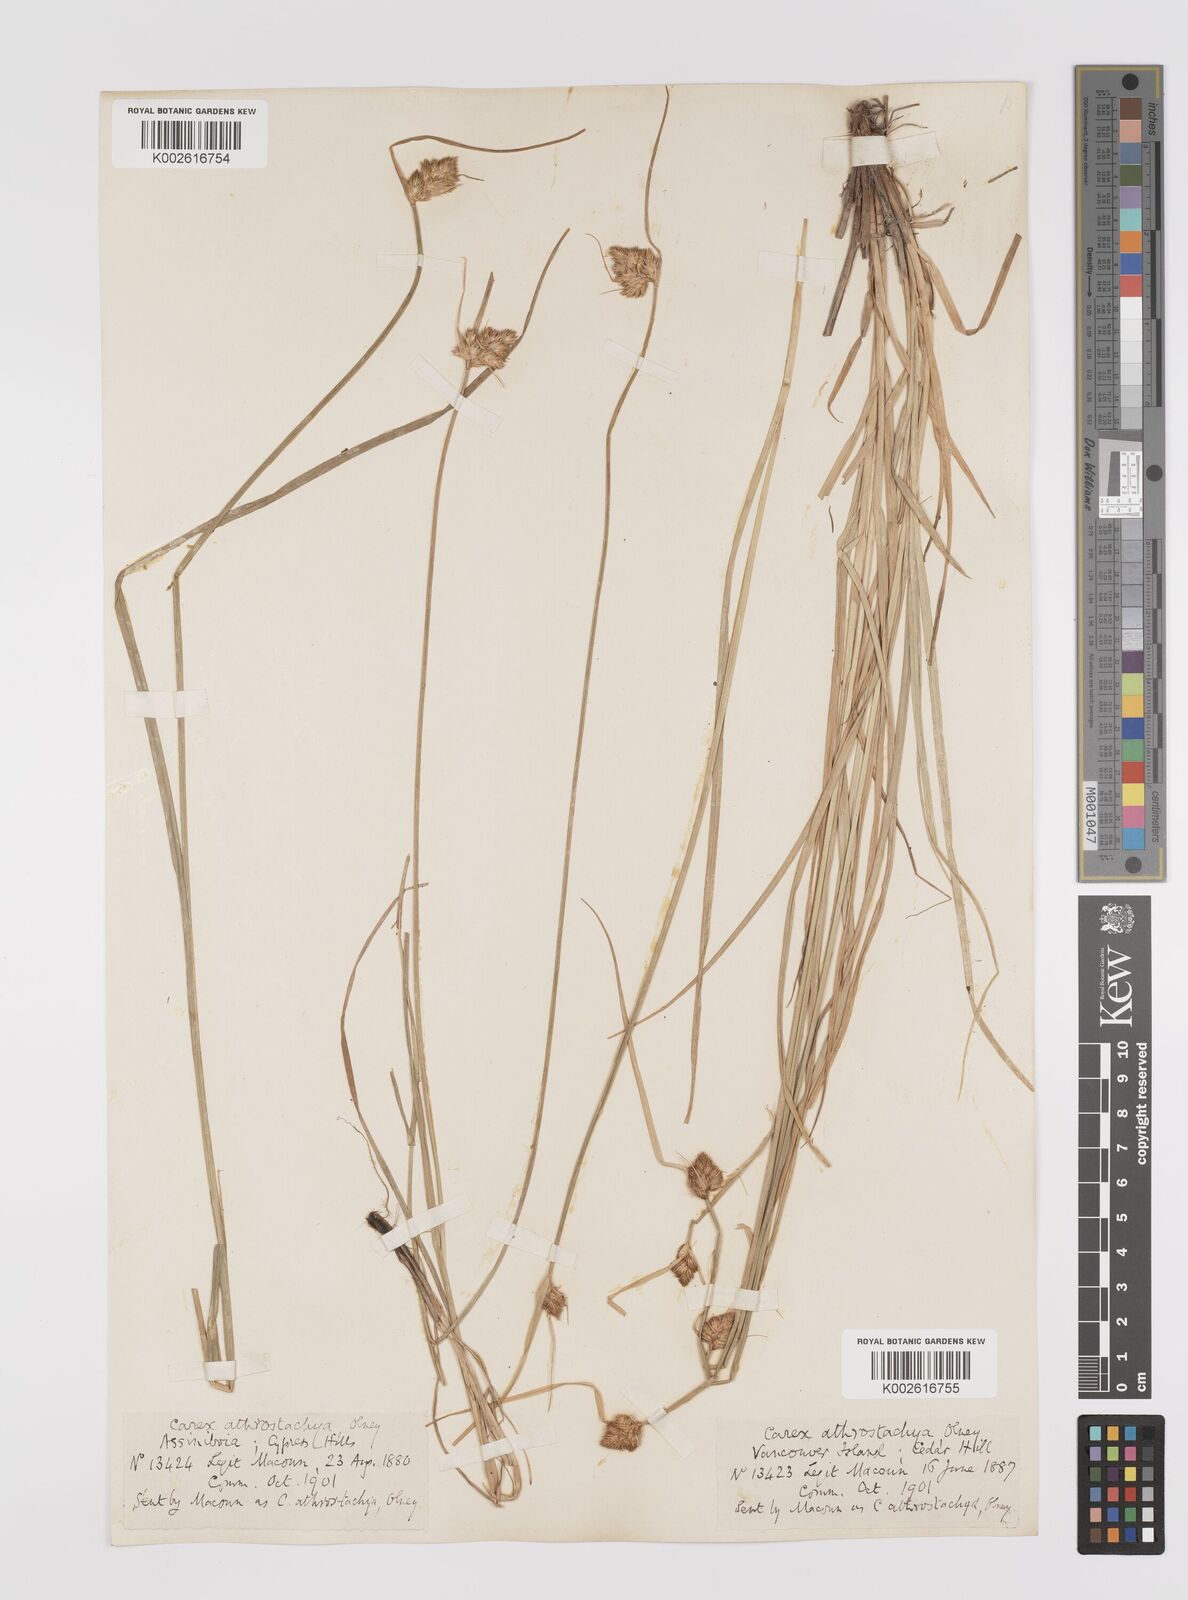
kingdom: Plantae
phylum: Tracheophyta
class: Liliopsida
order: Poales
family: Cyperaceae
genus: Carex
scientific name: Carex athrostachya
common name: Slenderbeak sedge
